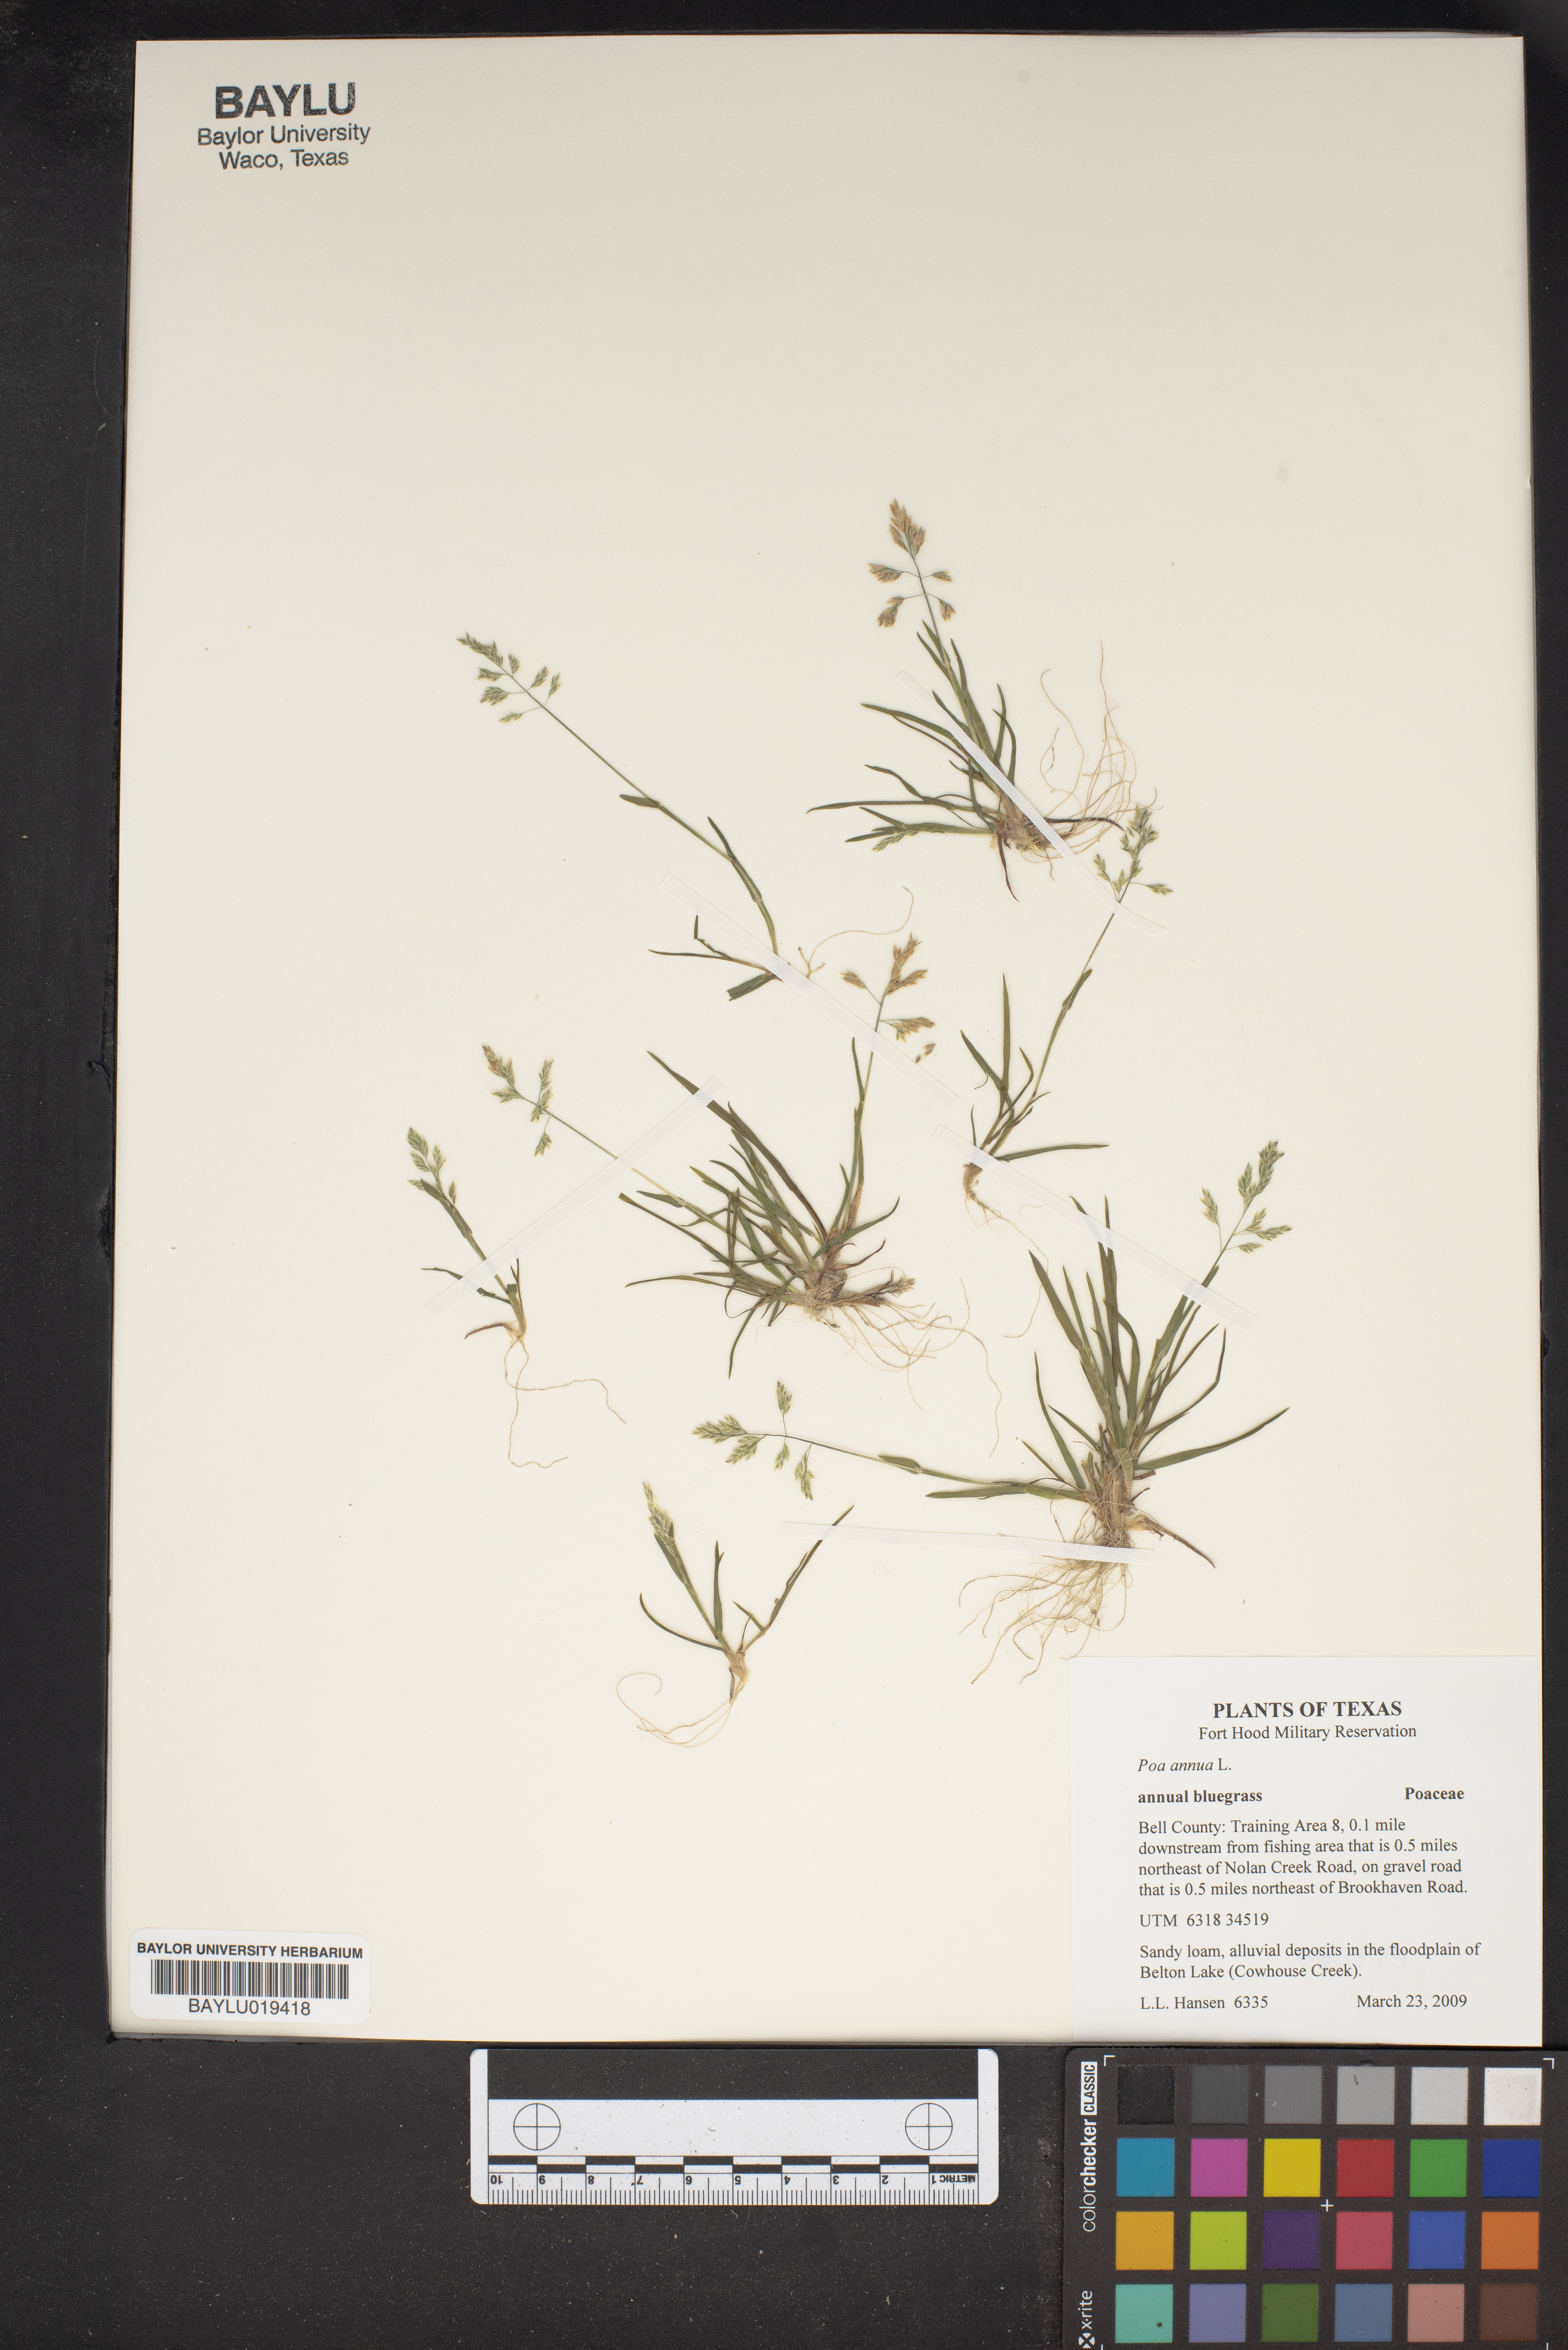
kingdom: Plantae
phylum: Tracheophyta
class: Liliopsida
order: Poales
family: Poaceae
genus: Poa
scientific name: Poa annua
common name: Annual bluegrass
